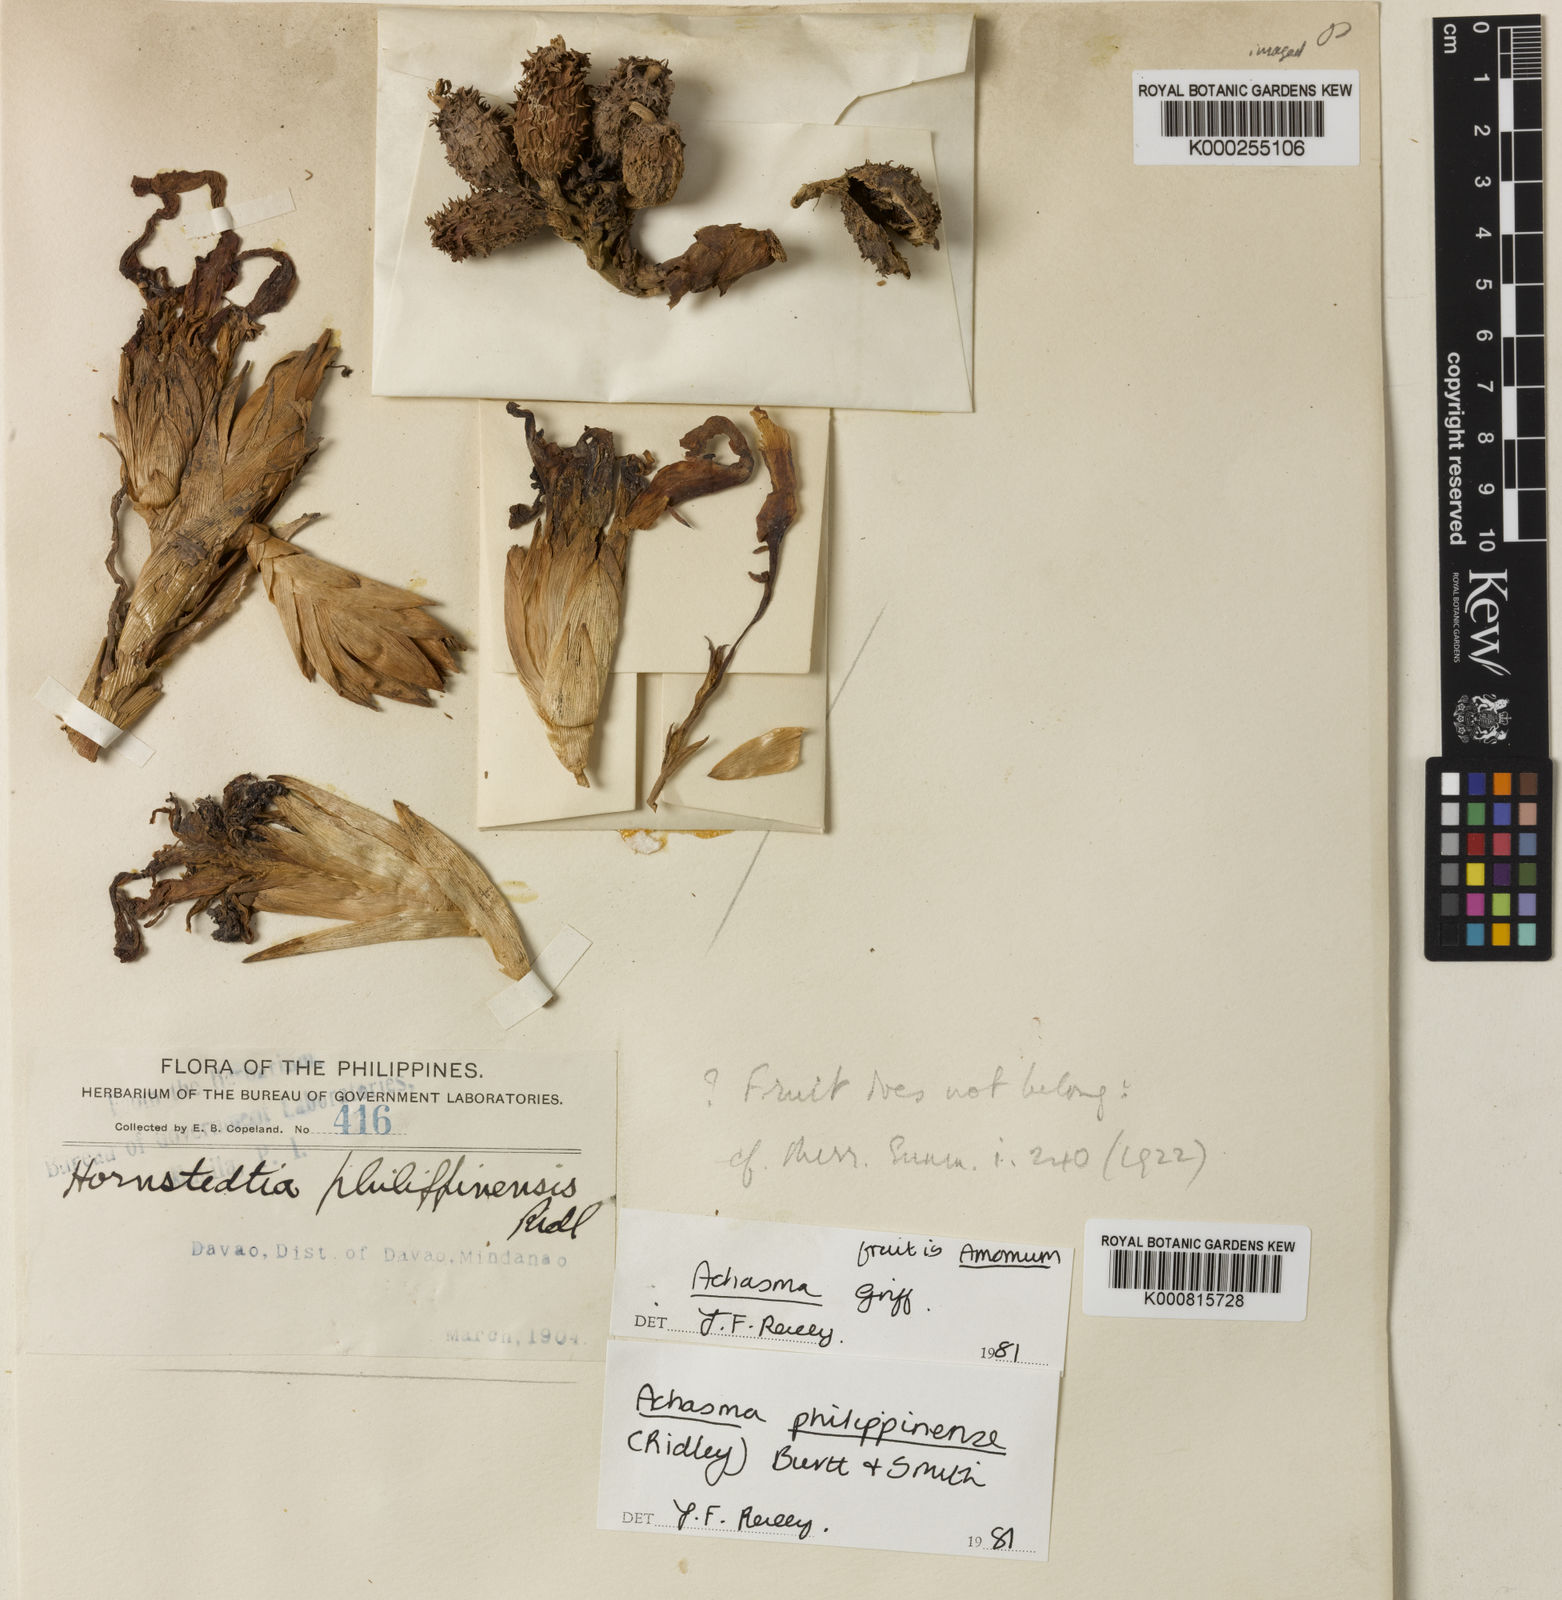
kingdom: Plantae
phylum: Tracheophyta
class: Liliopsida
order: Zingiberales
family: Zingiberaceae
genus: Etlingera
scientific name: Etlingera philippinensis
